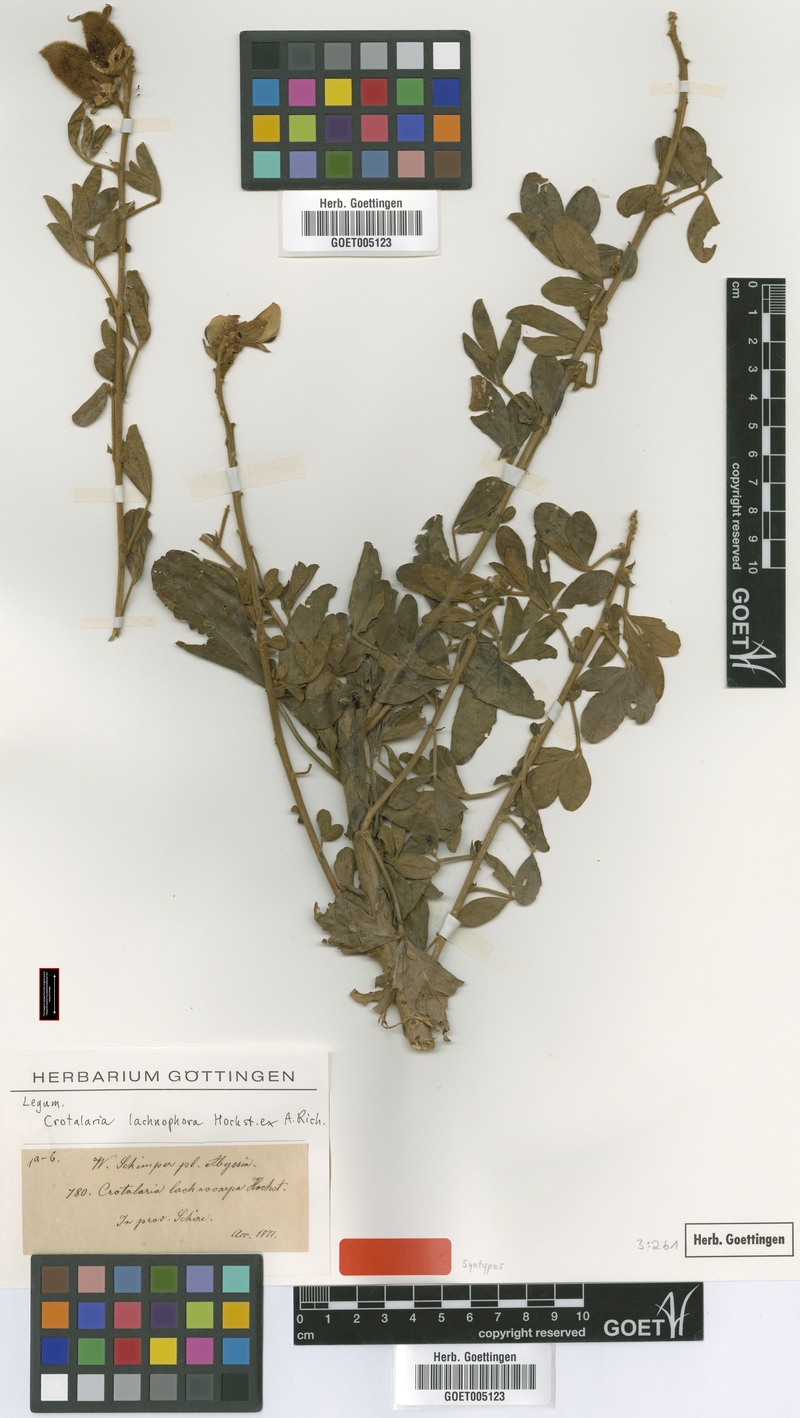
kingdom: Plantae
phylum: Tracheophyta
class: Magnoliopsida
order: Fabales
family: Fabaceae
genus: Crotalaria
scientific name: Crotalaria lachnophora
